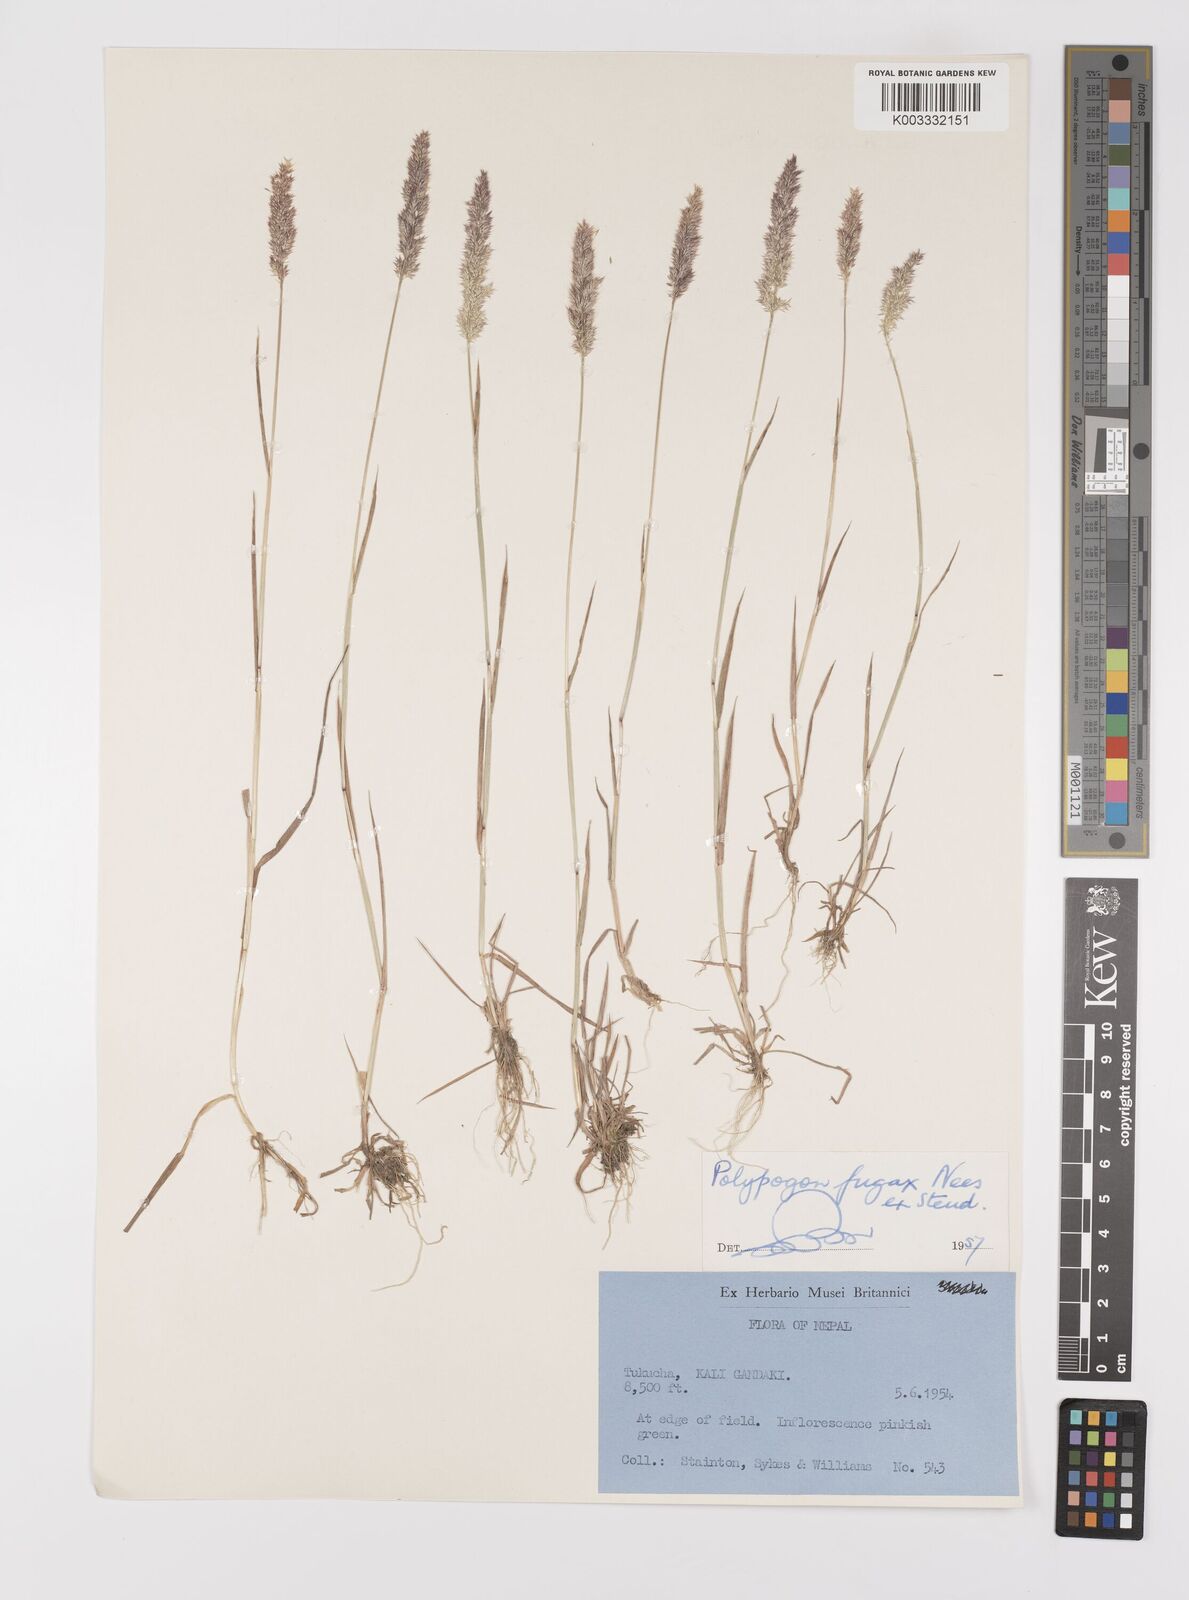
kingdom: Plantae
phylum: Tracheophyta
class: Liliopsida
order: Poales
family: Poaceae
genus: Polypogon
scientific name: Polypogon fugax
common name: Asia minor bluegrass
